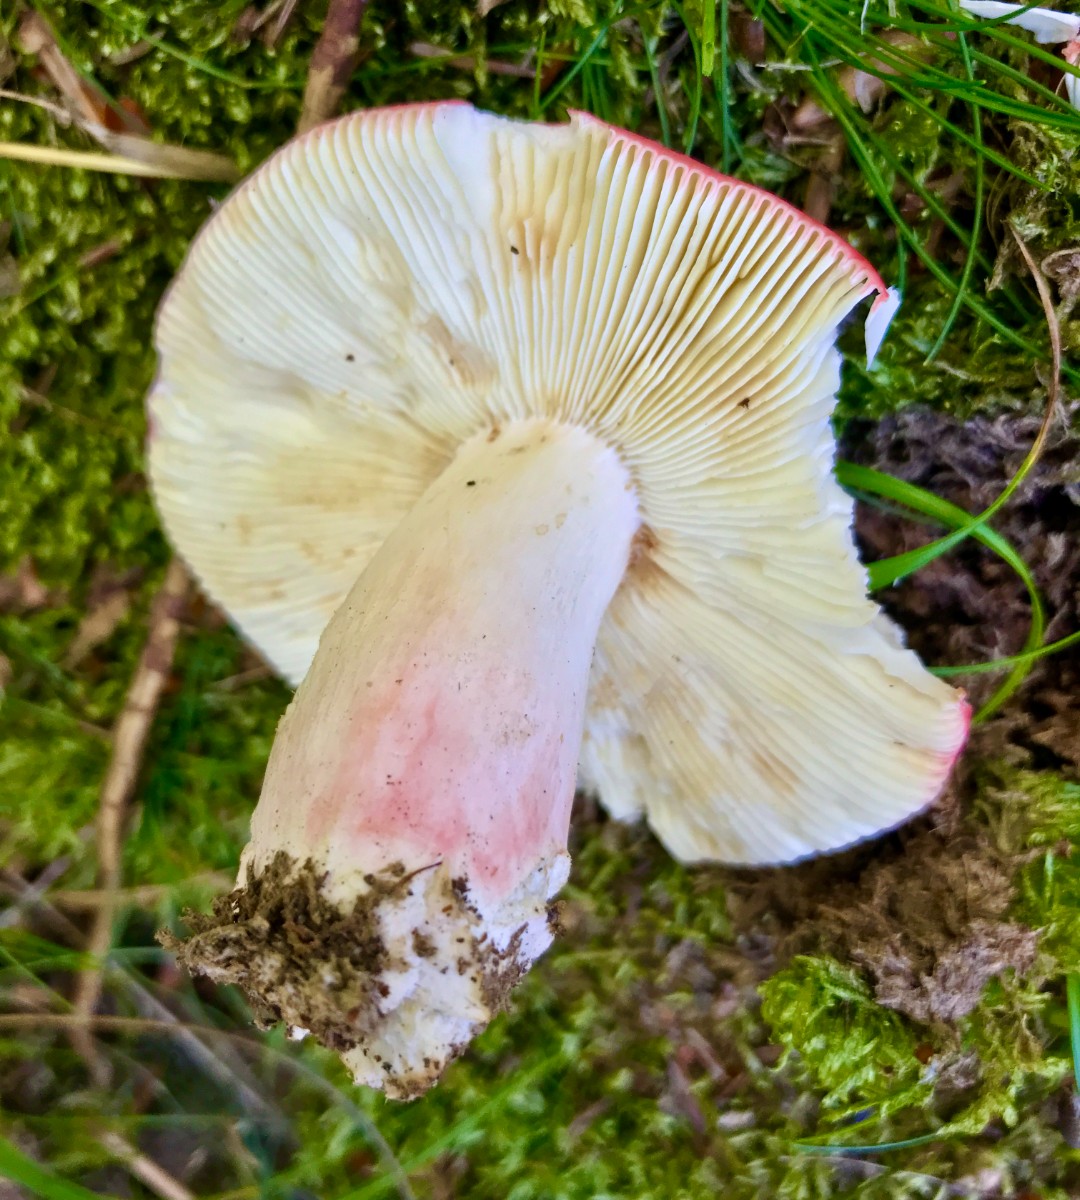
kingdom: Fungi
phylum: Basidiomycota
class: Agaricomycetes
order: Russulales
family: Russulaceae
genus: Russula
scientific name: Russula rosea
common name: fastkødet skørhat
